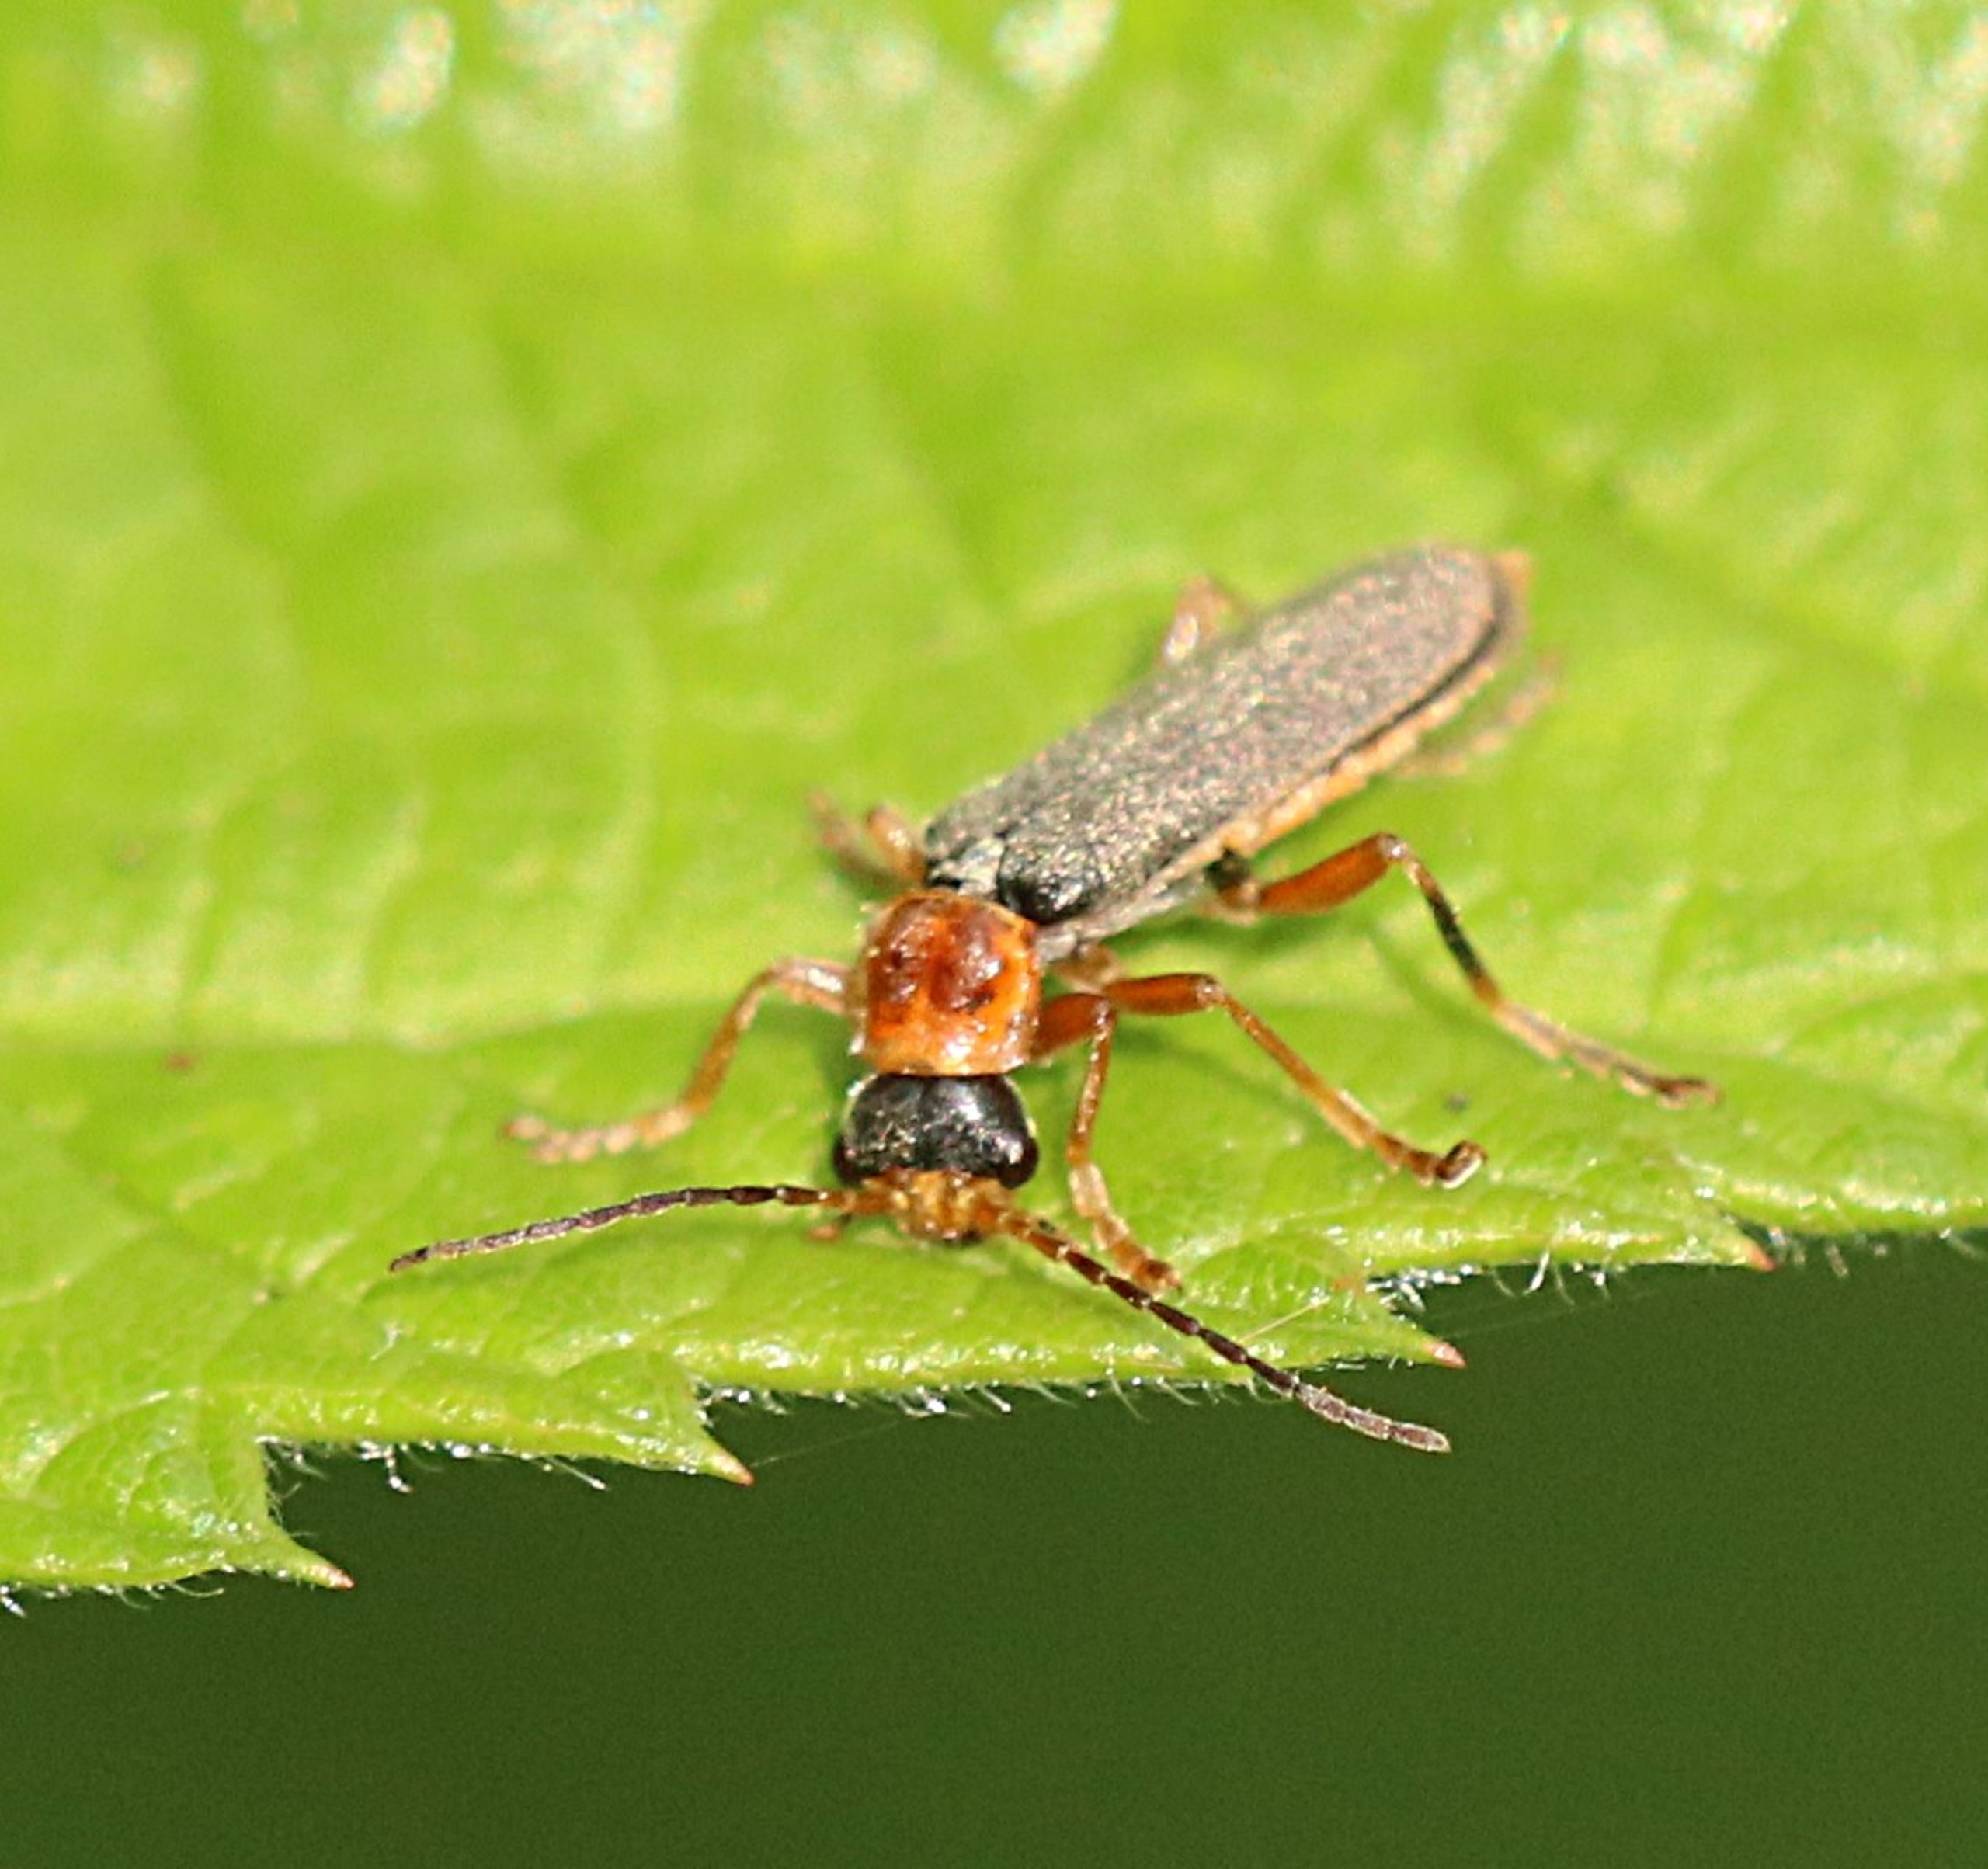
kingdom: Animalia
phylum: Arthropoda
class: Insecta
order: Coleoptera
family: Cantharidae
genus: Cantharis
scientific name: Cantharis lateralis
